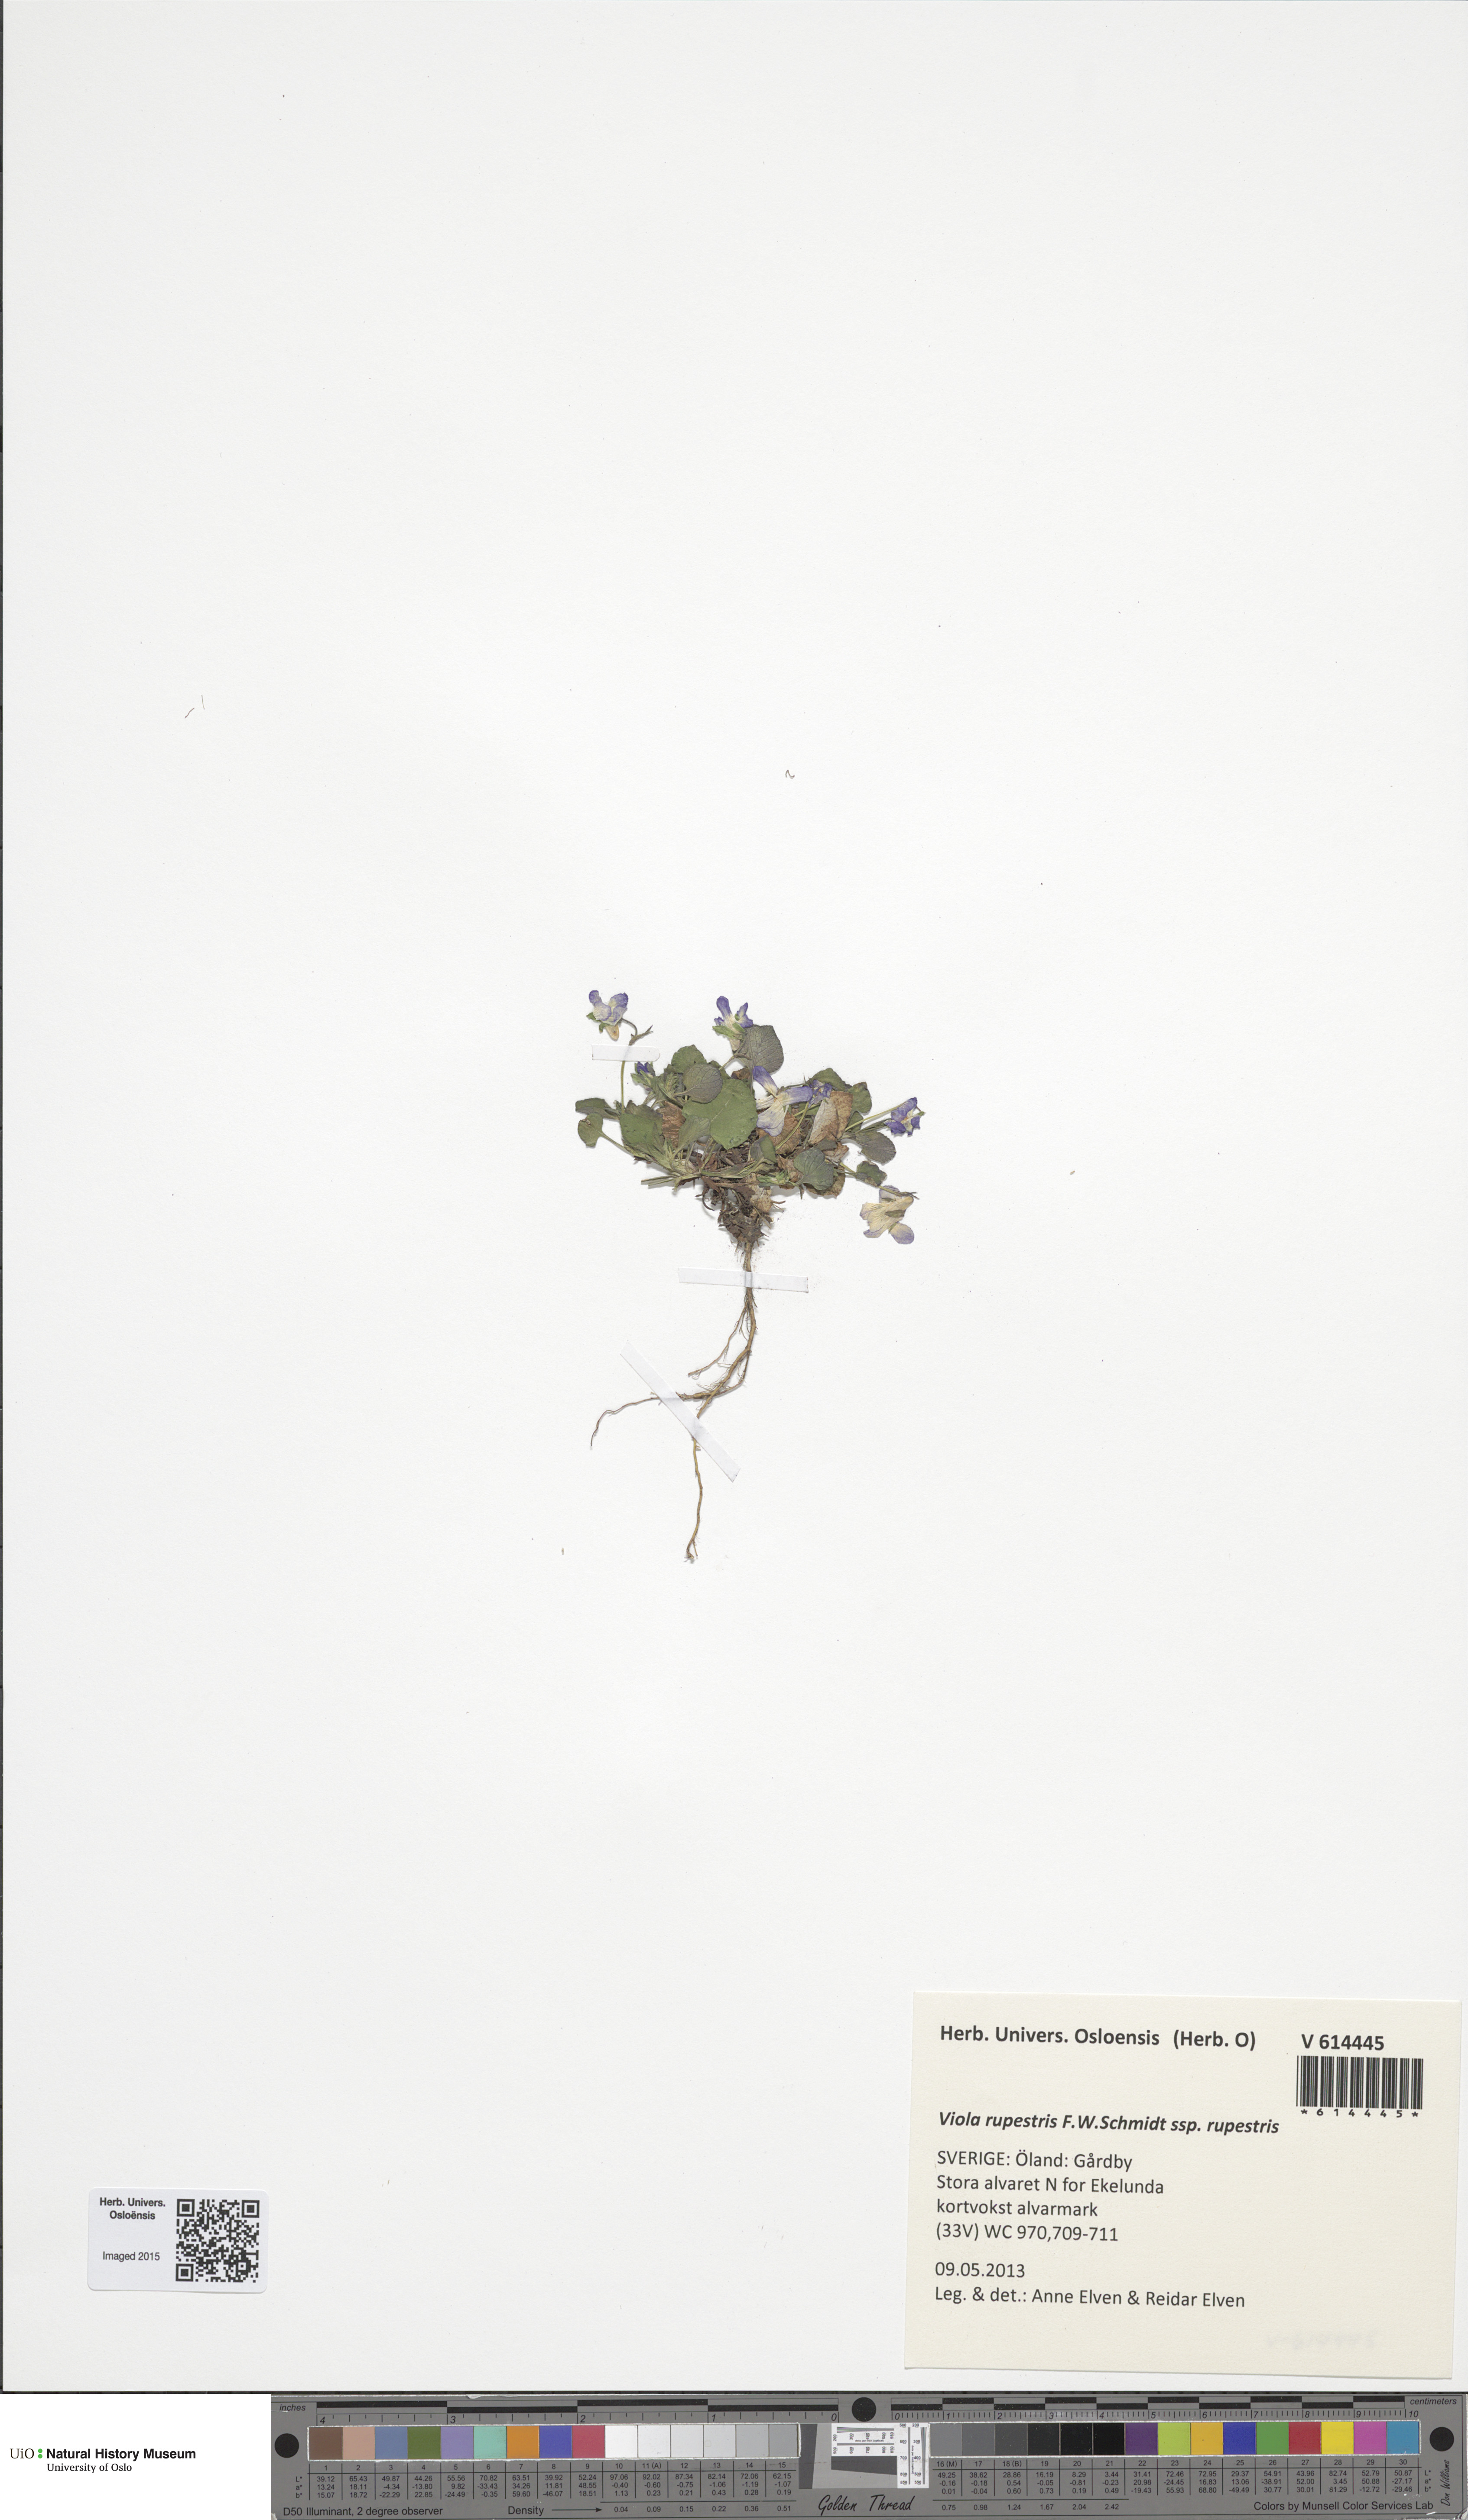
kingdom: Plantae
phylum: Tracheophyta
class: Magnoliopsida
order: Malpighiales
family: Violaceae
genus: Viola
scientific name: Viola rupestris
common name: Teesdale violet
